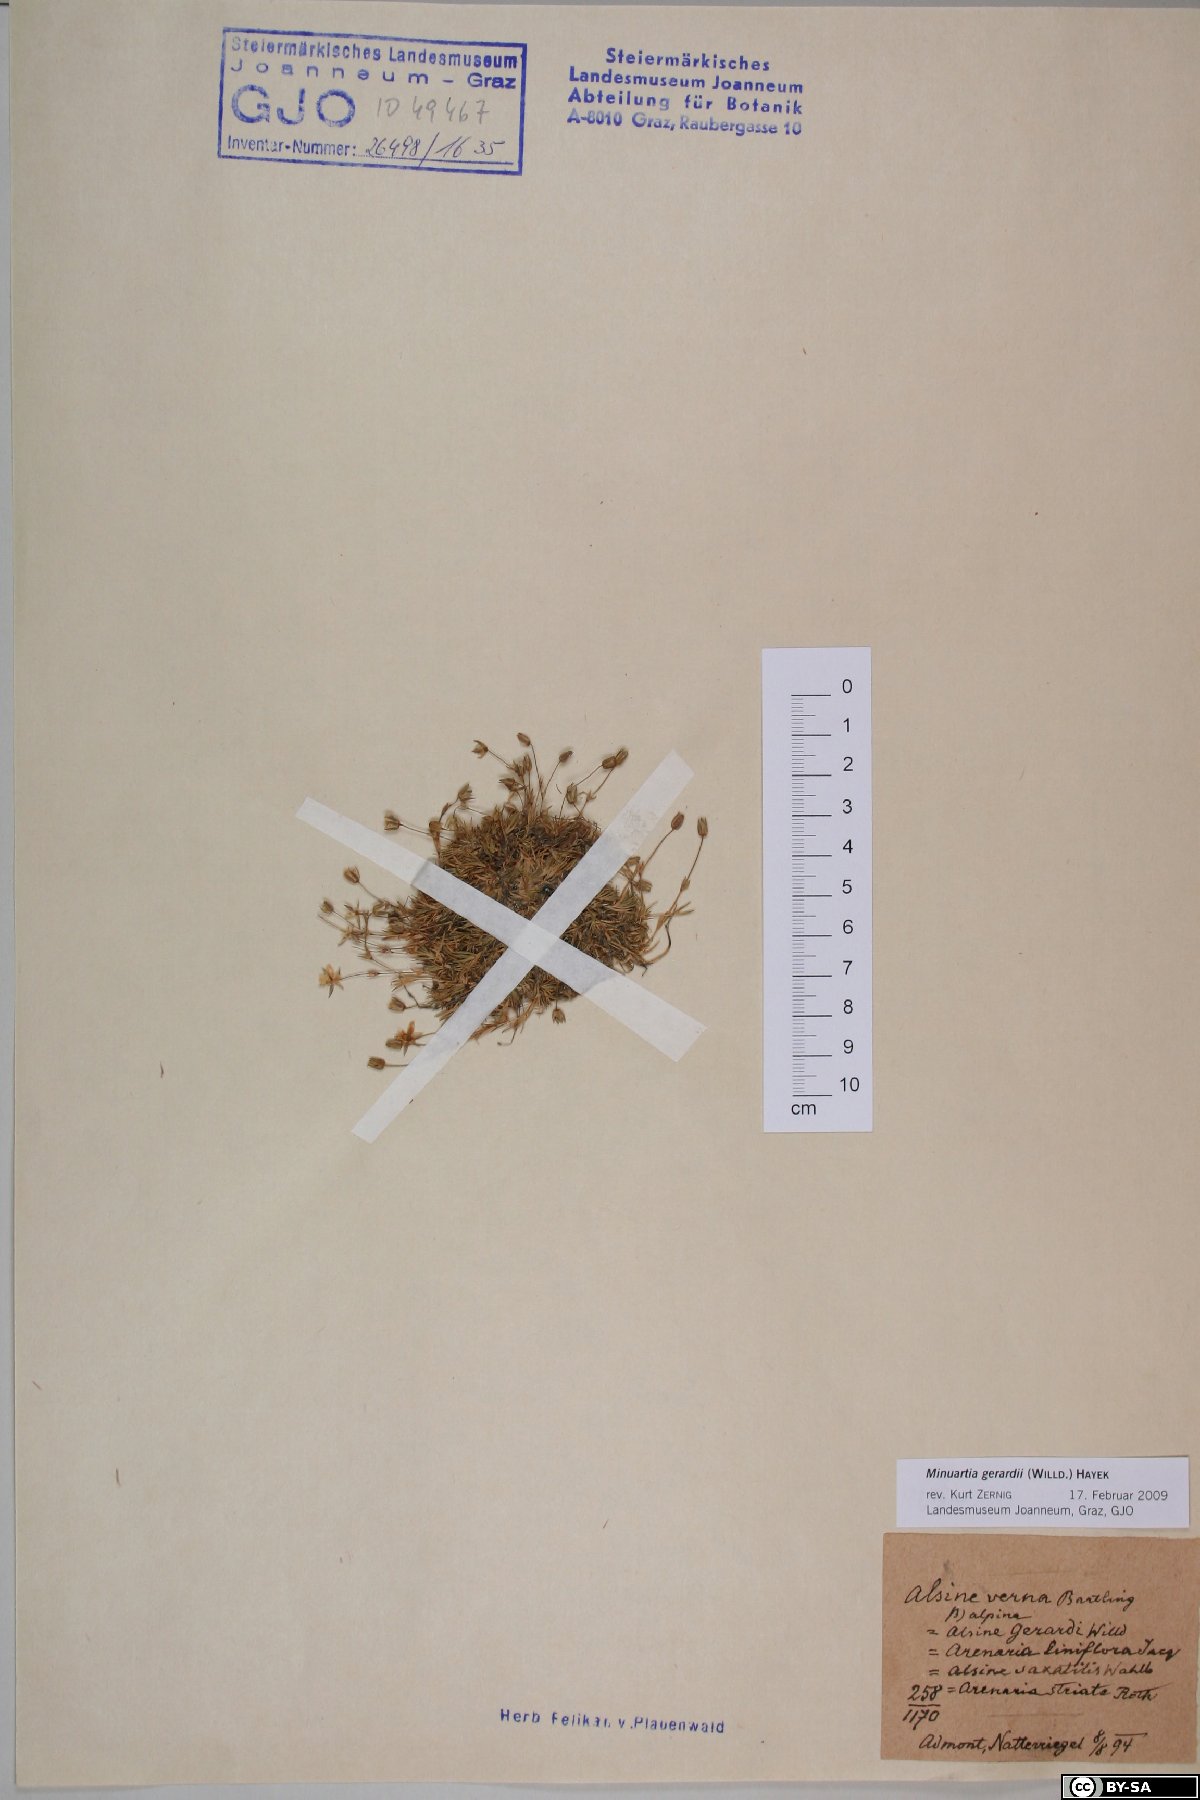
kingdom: Plantae
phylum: Tracheophyta
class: Magnoliopsida
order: Caryophyllales
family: Caryophyllaceae
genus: Sabulina
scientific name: Sabulina verna
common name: Spring sandwort
